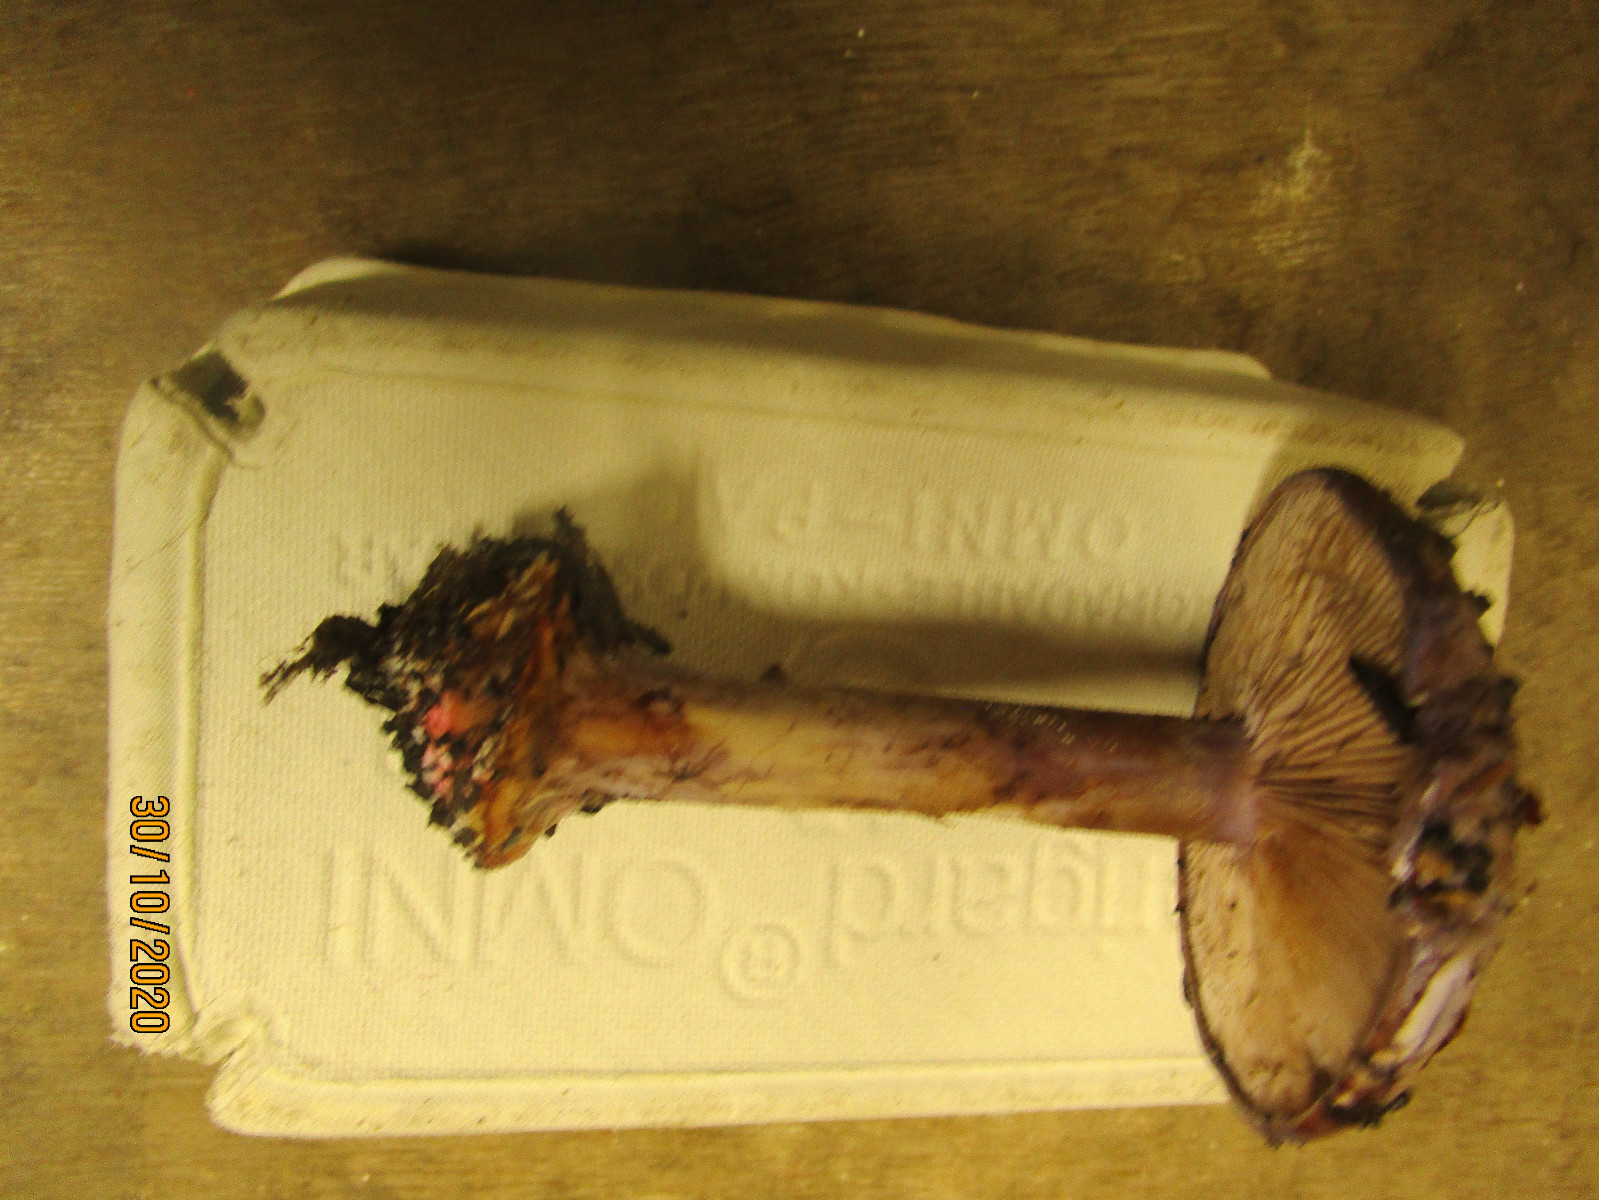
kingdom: Fungi
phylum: Basidiomycota
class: Agaricomycetes
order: Agaricales
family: Cortinariaceae
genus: Calonarius
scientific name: Calonarius violaceipes
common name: stedmoder-slørhat
